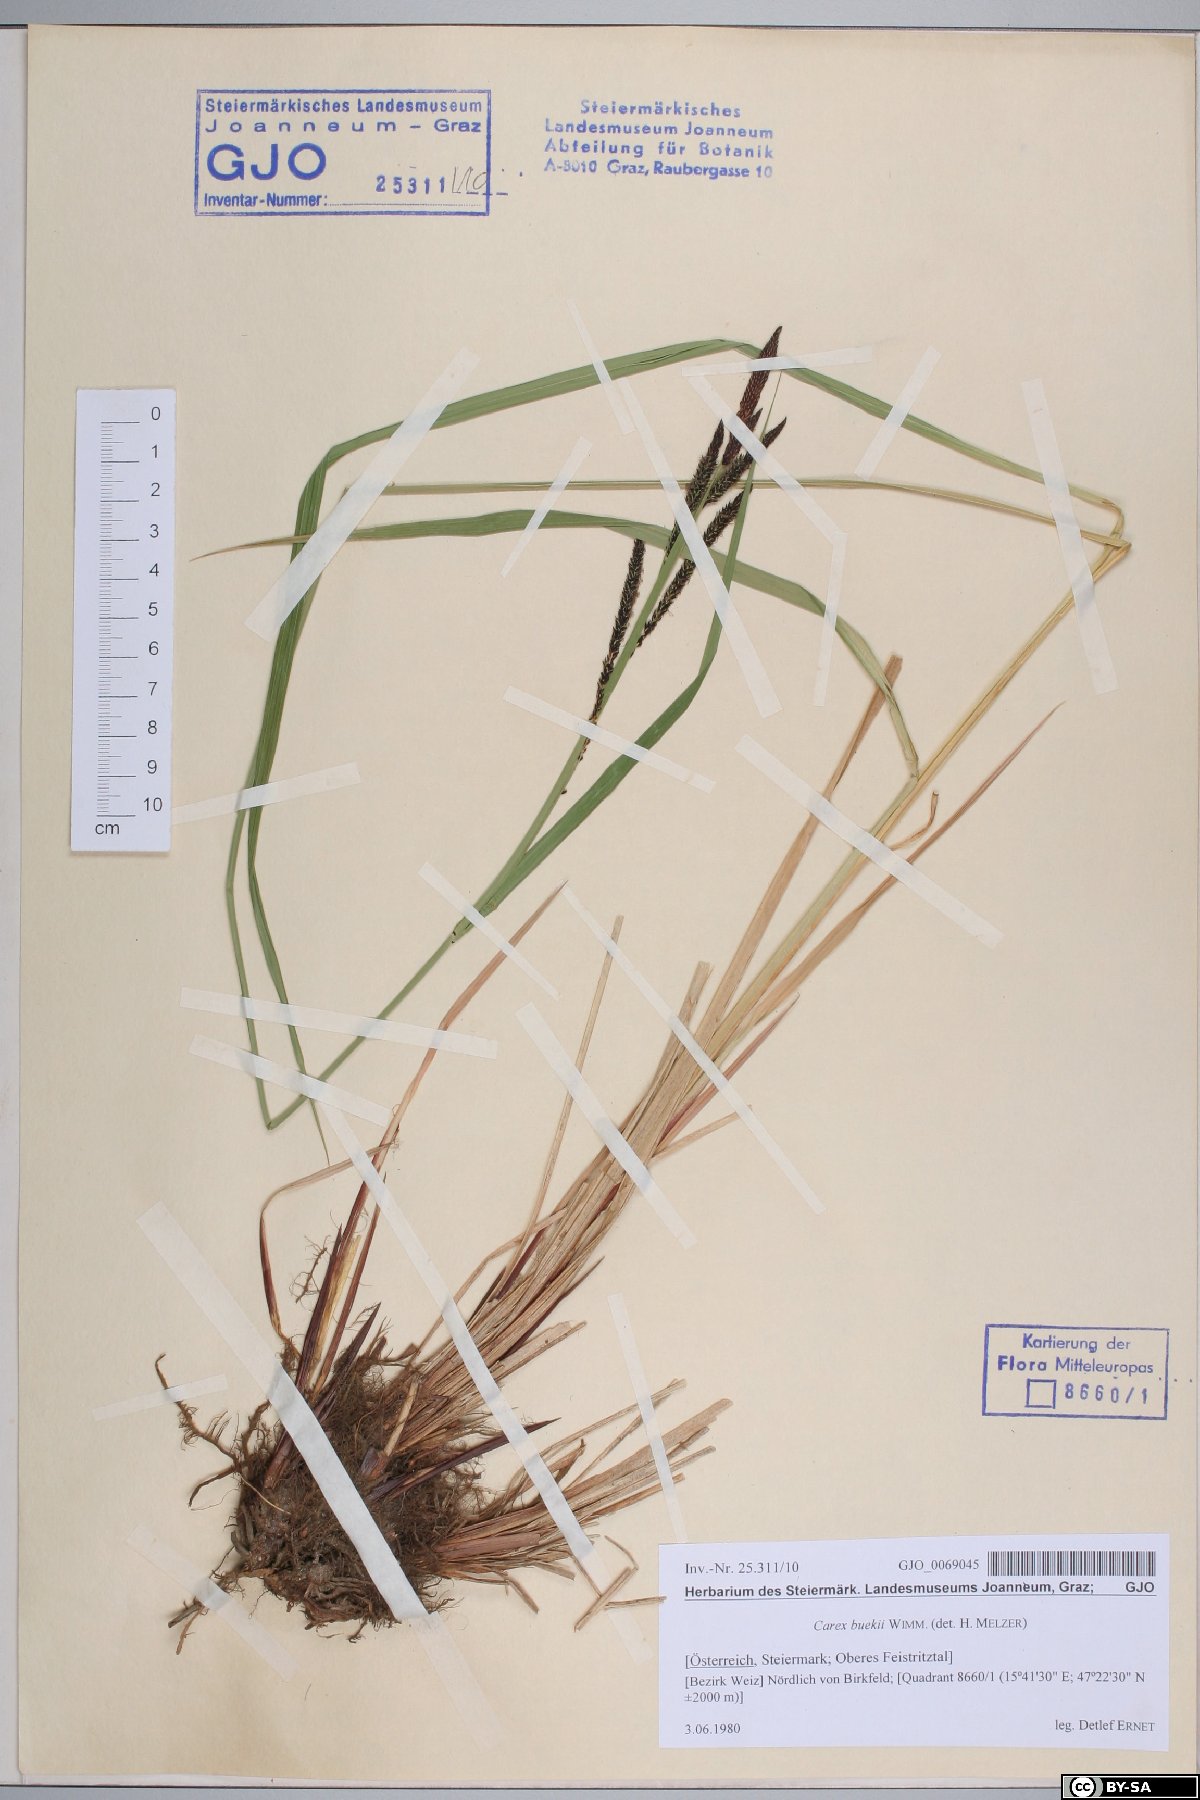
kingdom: Plantae
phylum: Tracheophyta
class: Liliopsida
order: Poales
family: Cyperaceae
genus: Carex
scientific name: Carex buekii
